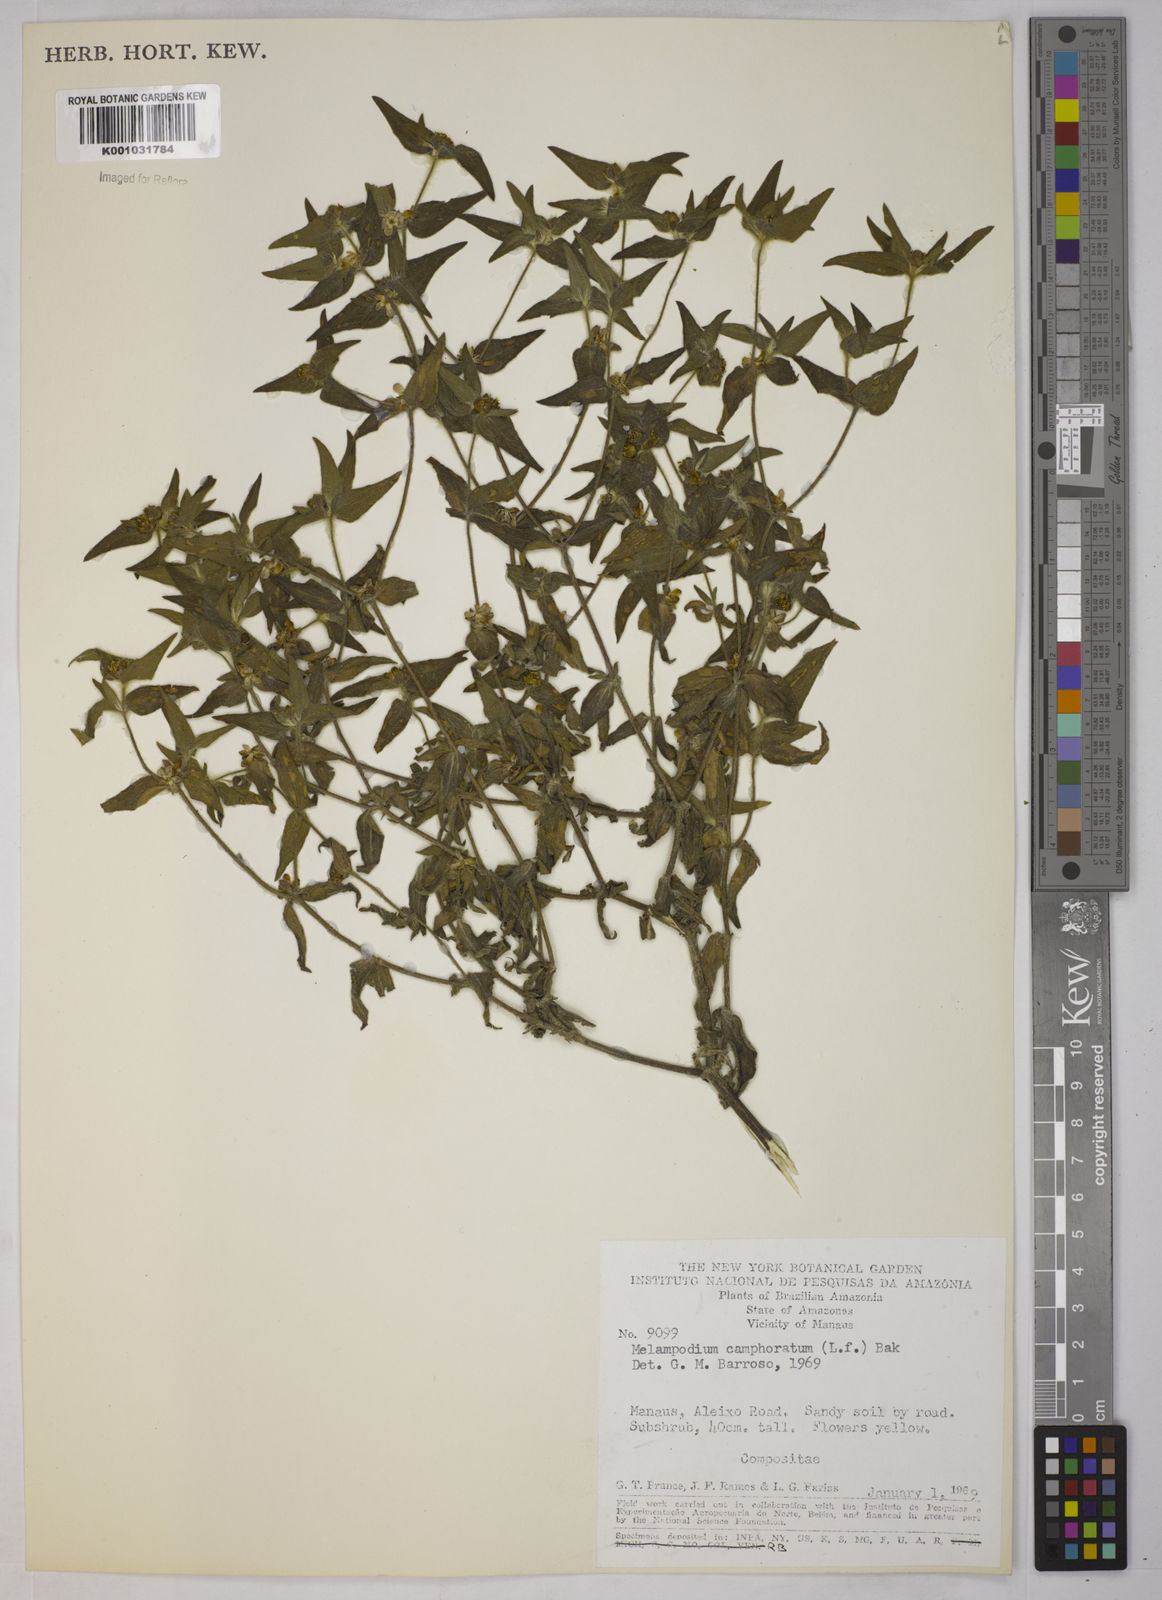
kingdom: Plantae
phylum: Tracheophyta
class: Magnoliopsida
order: Asterales
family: Asteraceae
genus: Unxia
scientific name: Unxia camphorata
